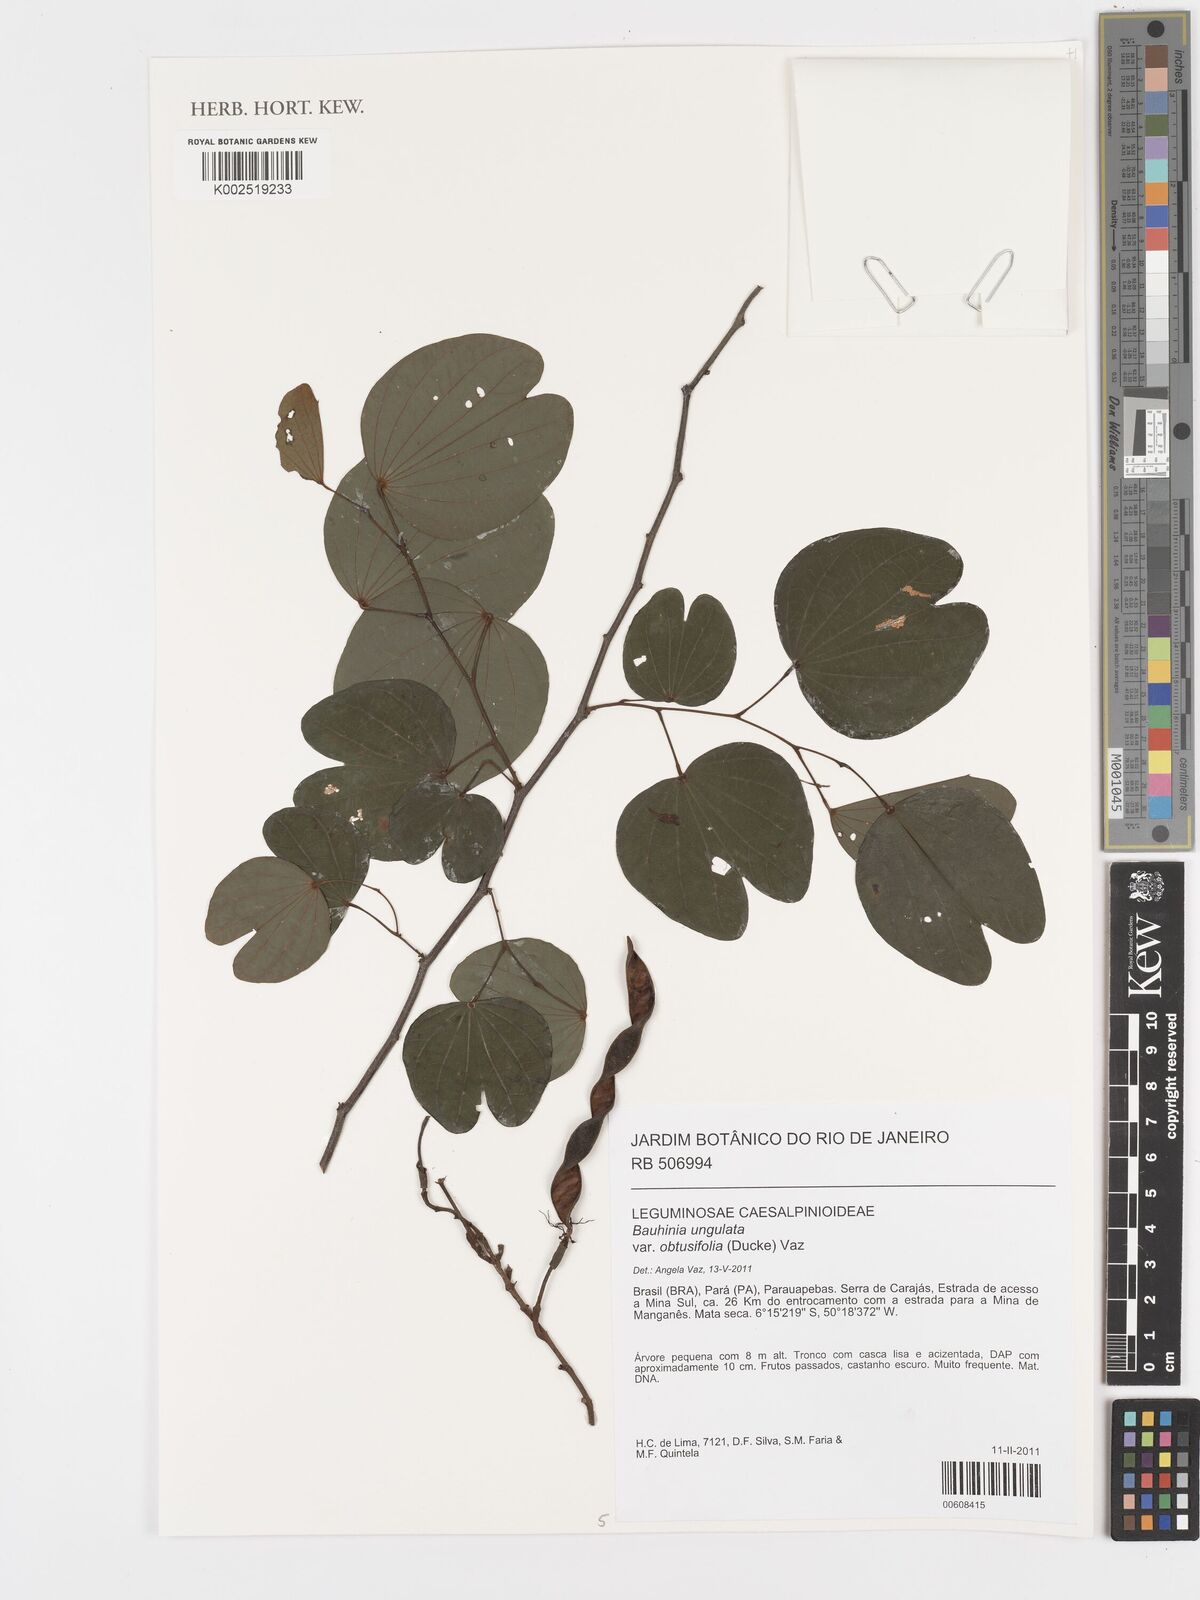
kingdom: Plantae
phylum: Tracheophyta
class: Magnoliopsida
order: Fabales
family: Fabaceae
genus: Bauhinia
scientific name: Bauhinia ungulata
